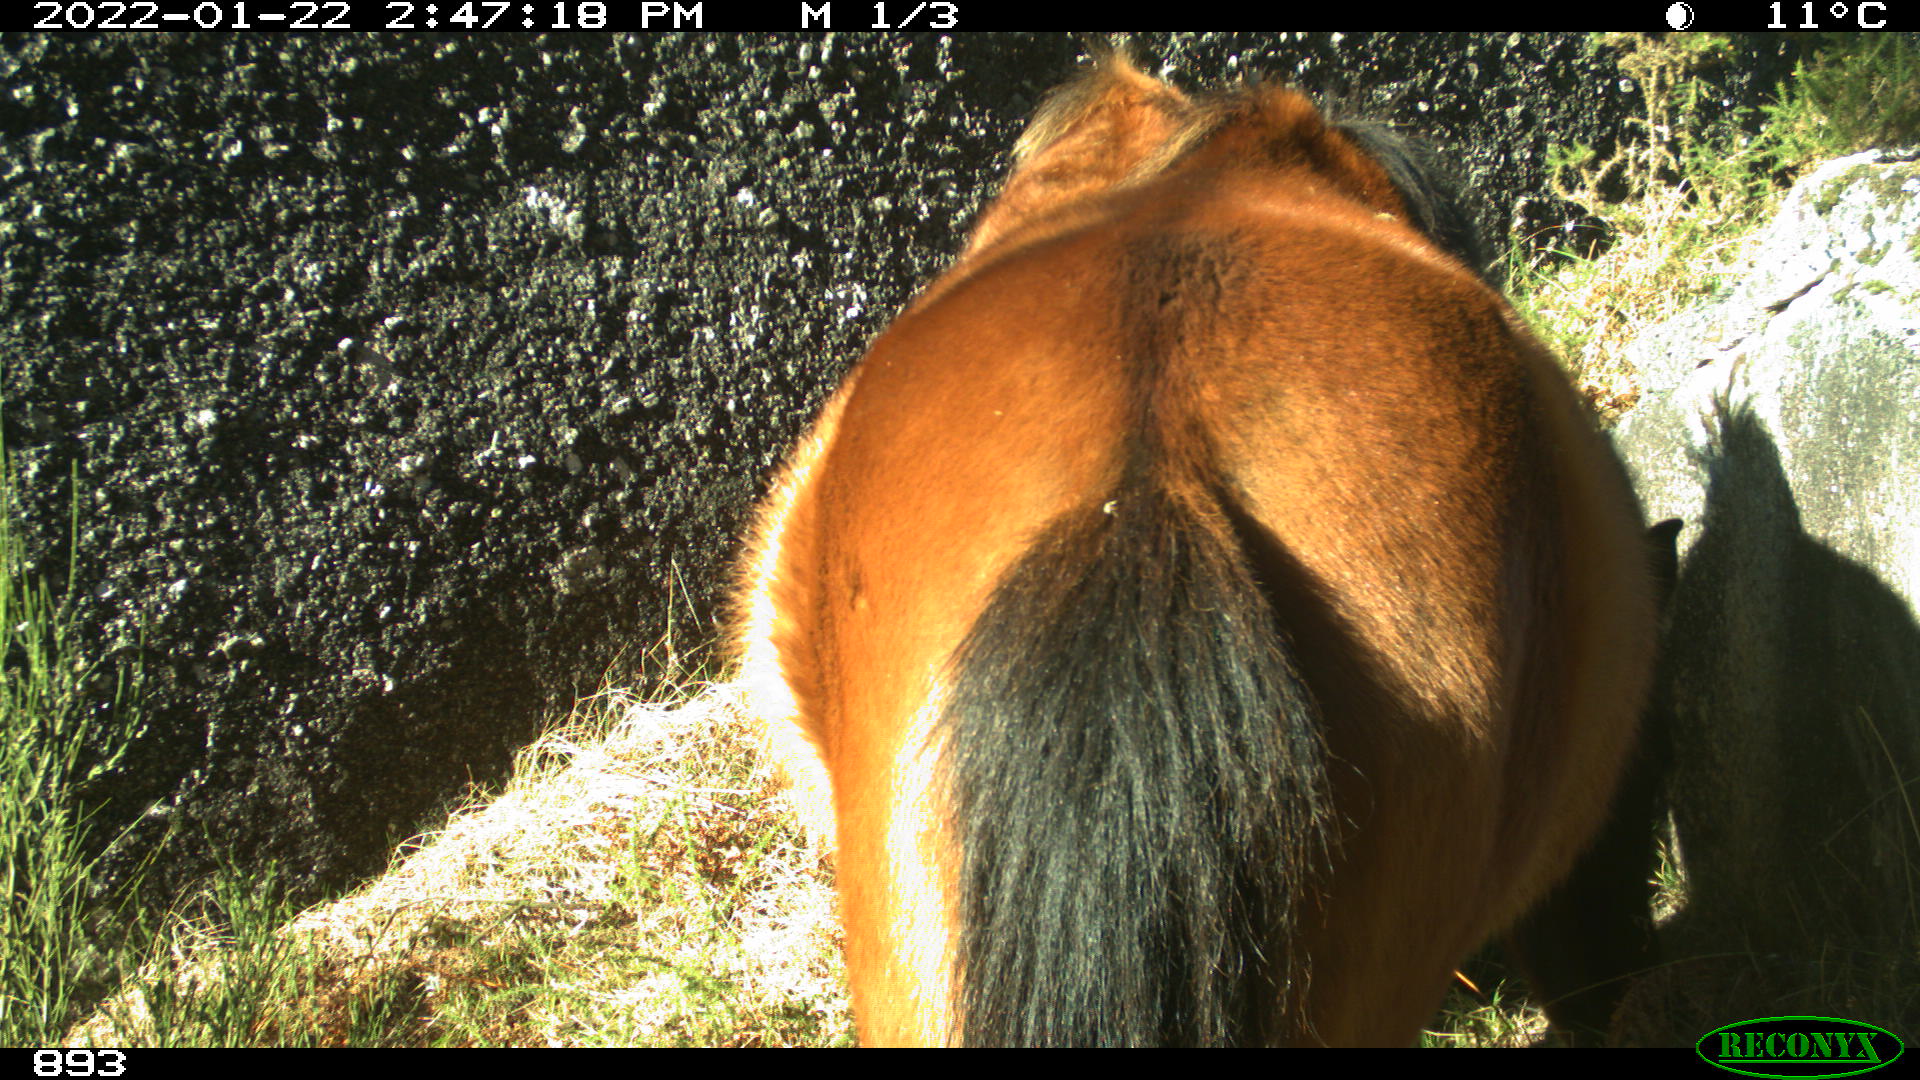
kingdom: Animalia
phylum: Chordata
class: Mammalia
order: Perissodactyla
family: Equidae
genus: Equus
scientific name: Equus caballus
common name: Horse
